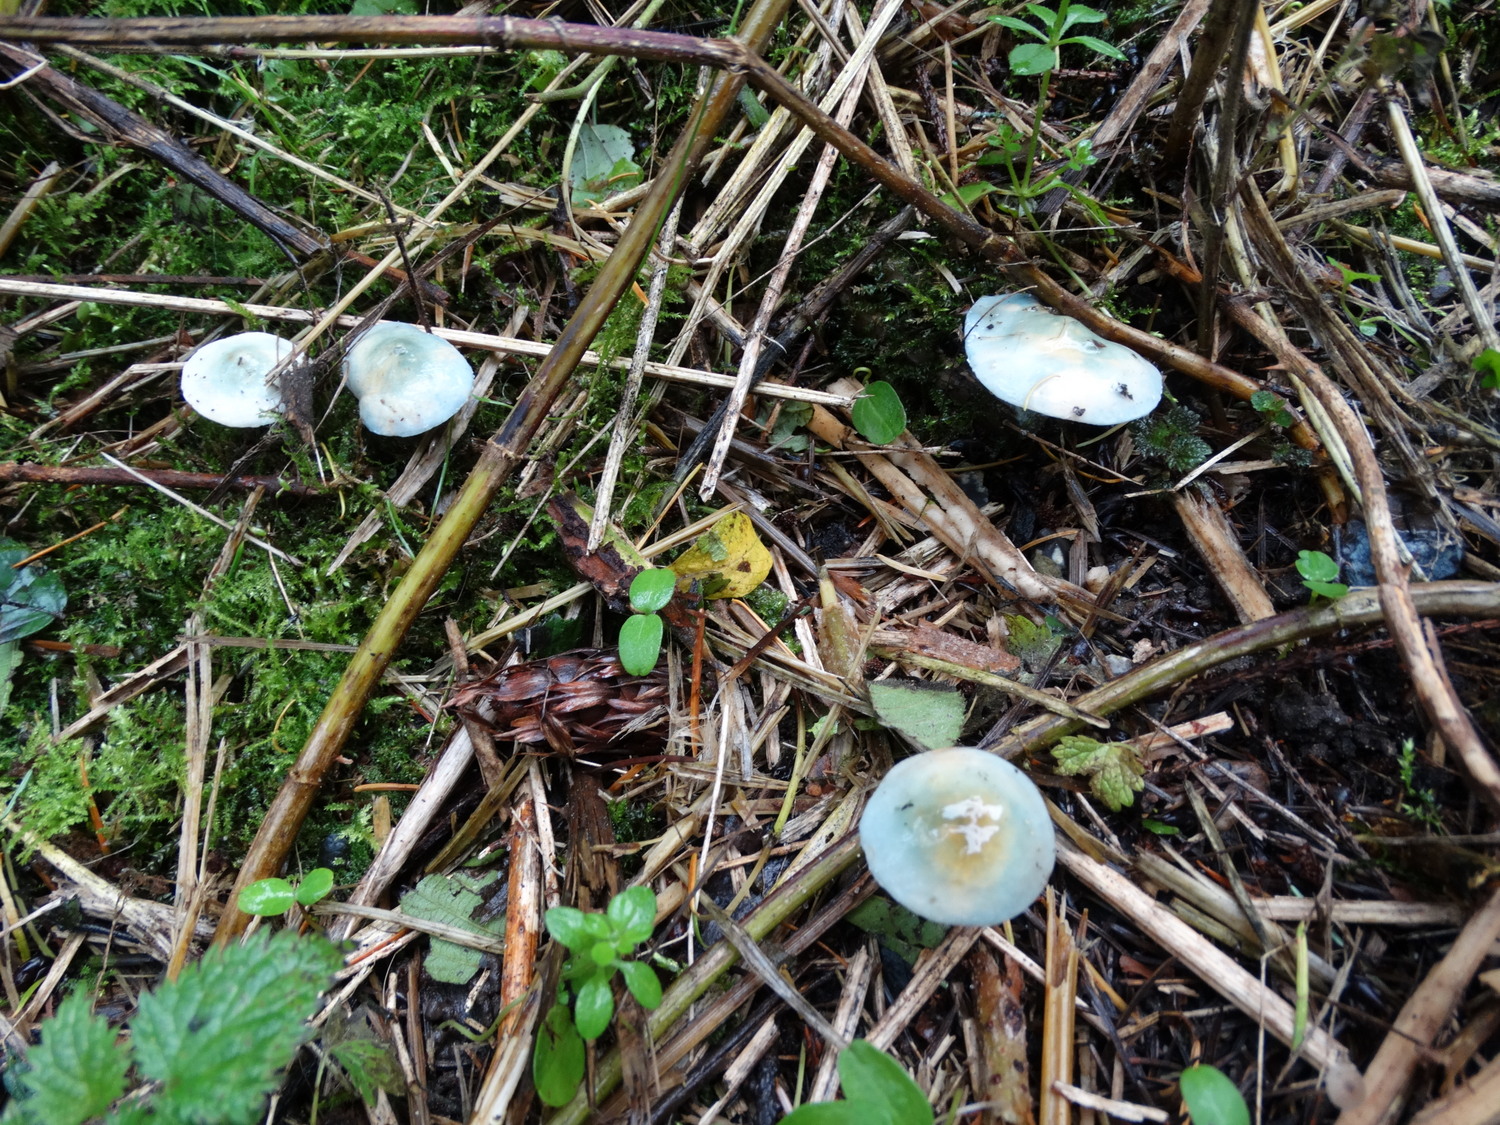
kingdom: Fungi
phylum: Basidiomycota
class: Agaricomycetes
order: Agaricales
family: Strophariaceae
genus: Stropharia
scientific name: Stropharia cyanea
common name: blågrøn bredblad
